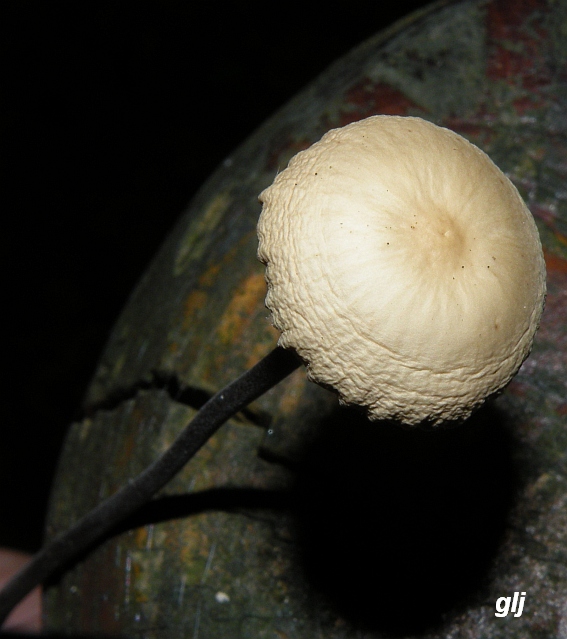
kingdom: Fungi
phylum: Basidiomycota
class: Agaricomycetes
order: Agaricales
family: Omphalotaceae
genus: Mycetinis
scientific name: Mycetinis alliaceus
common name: stor løghat
